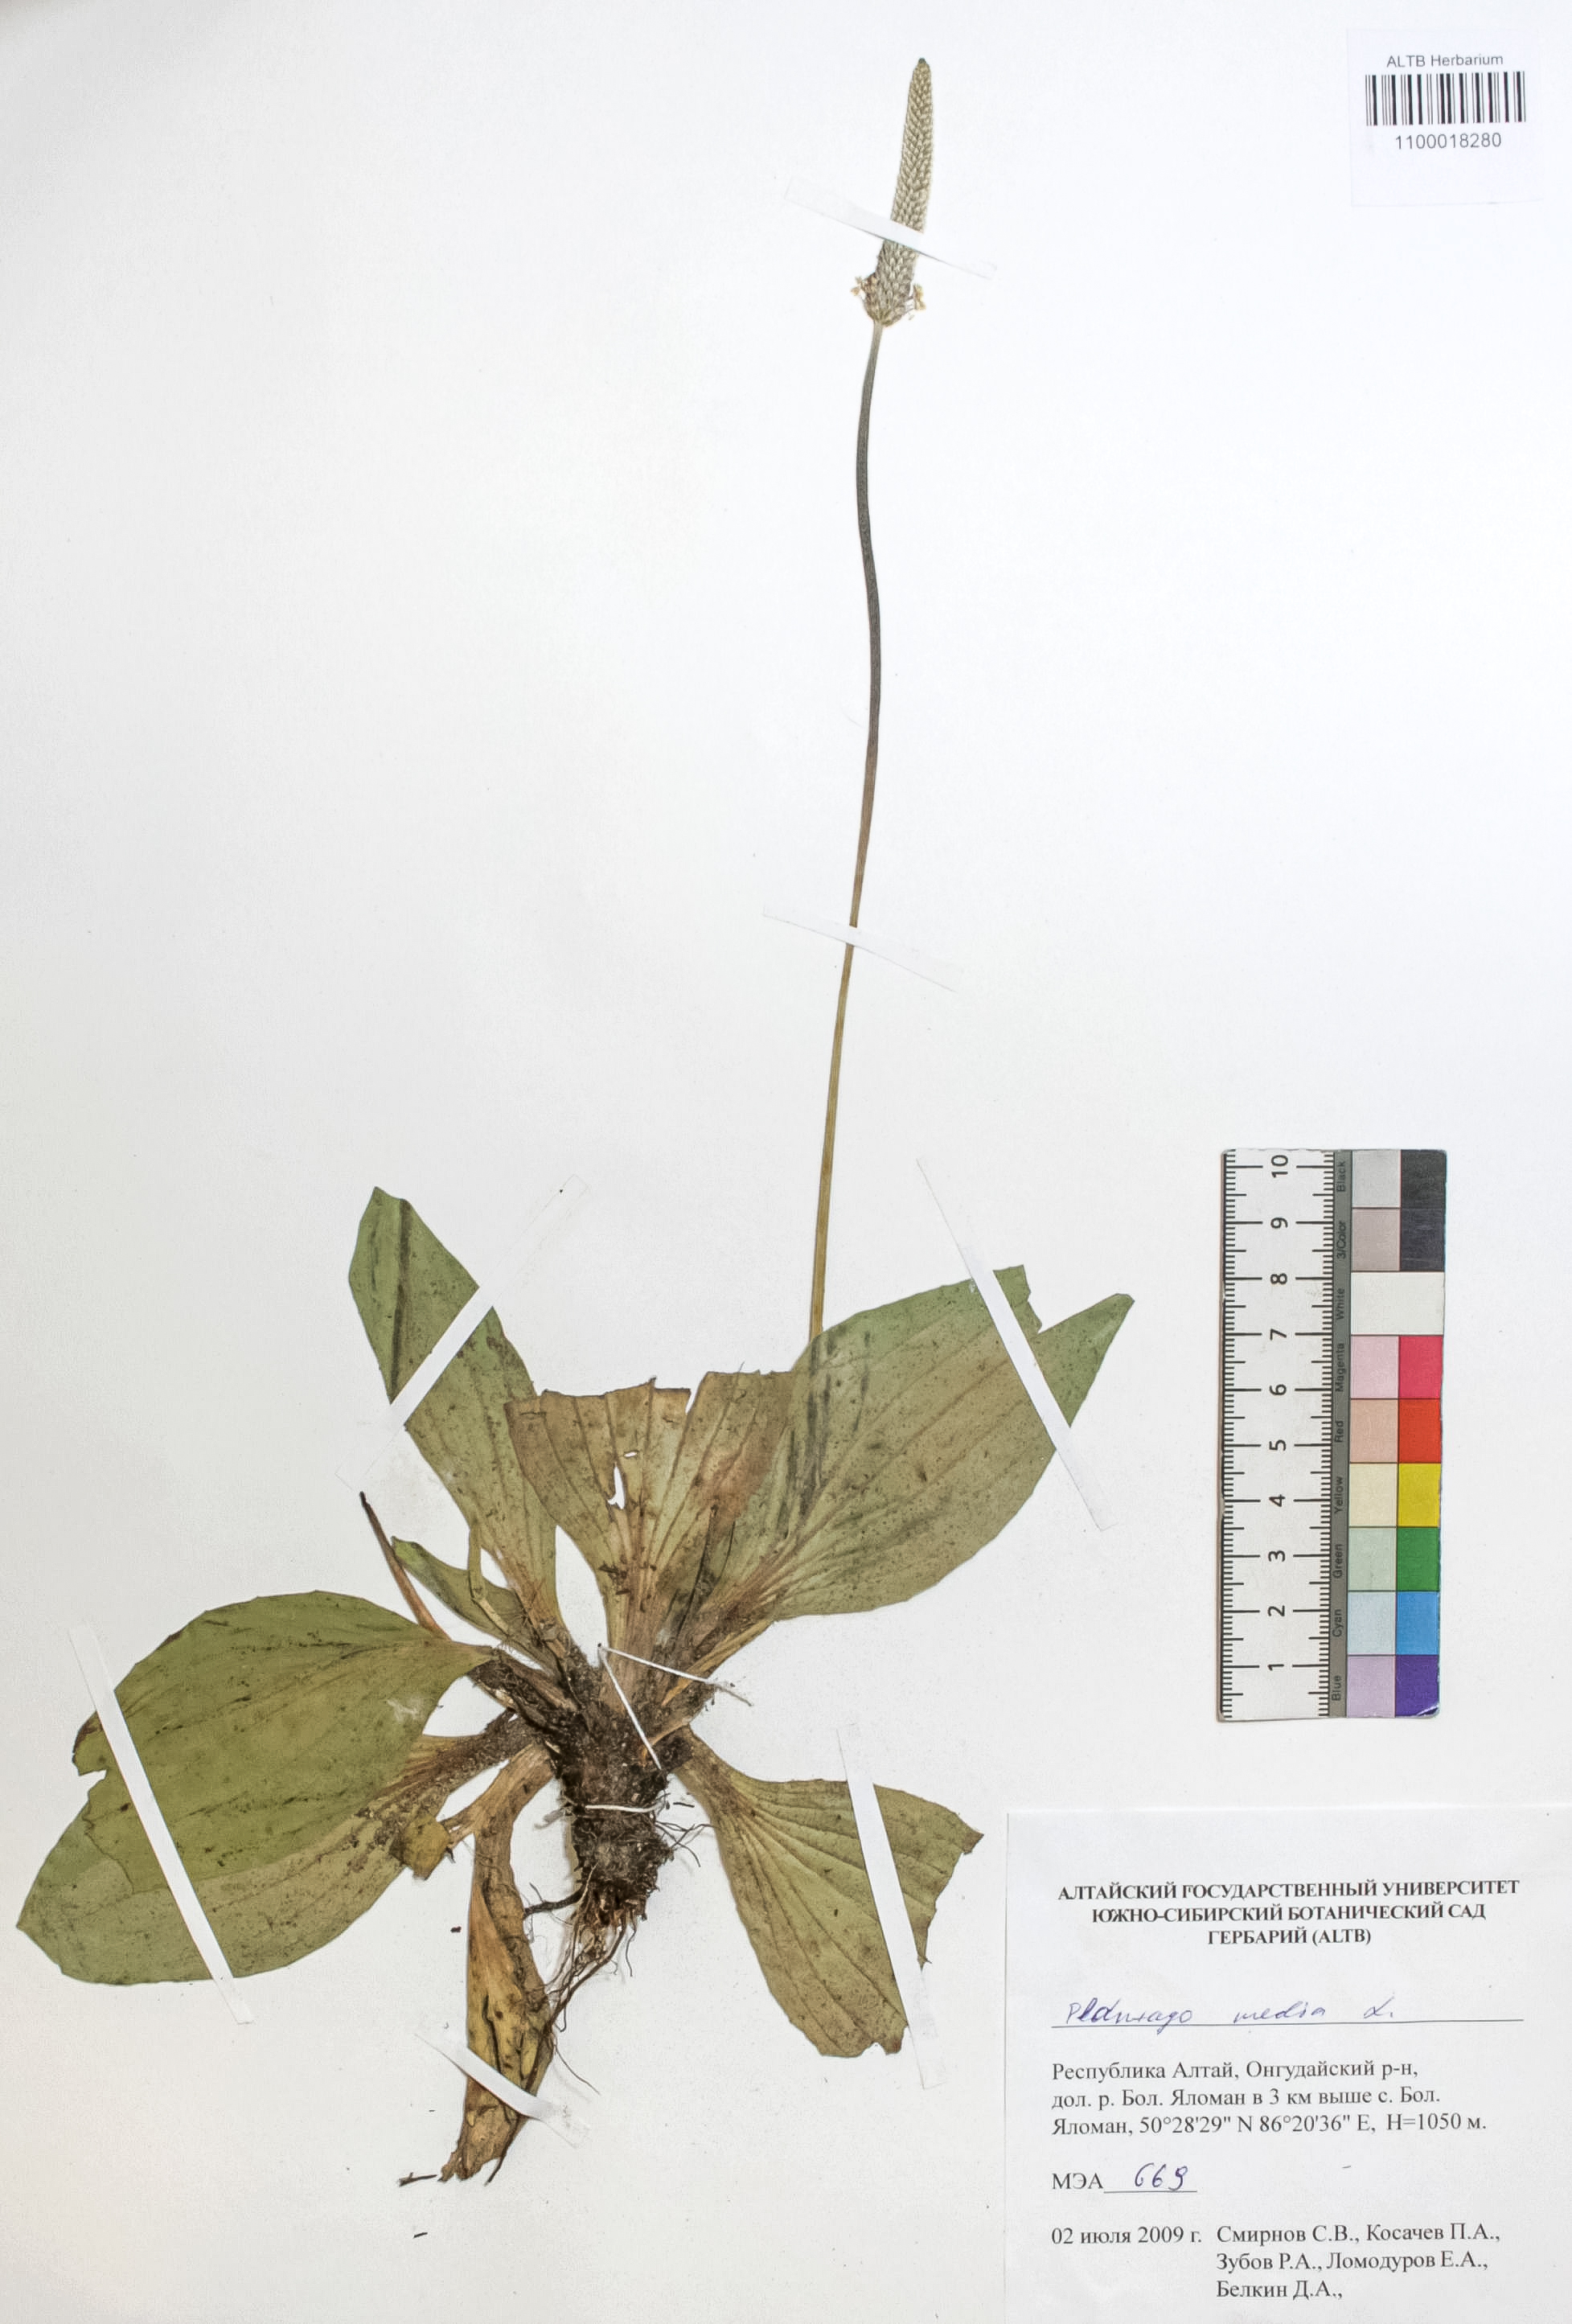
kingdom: Plantae
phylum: Tracheophyta
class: Magnoliopsida
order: Lamiales
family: Plantaginaceae
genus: Plantago
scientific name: Plantago media
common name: Hoary plantain
